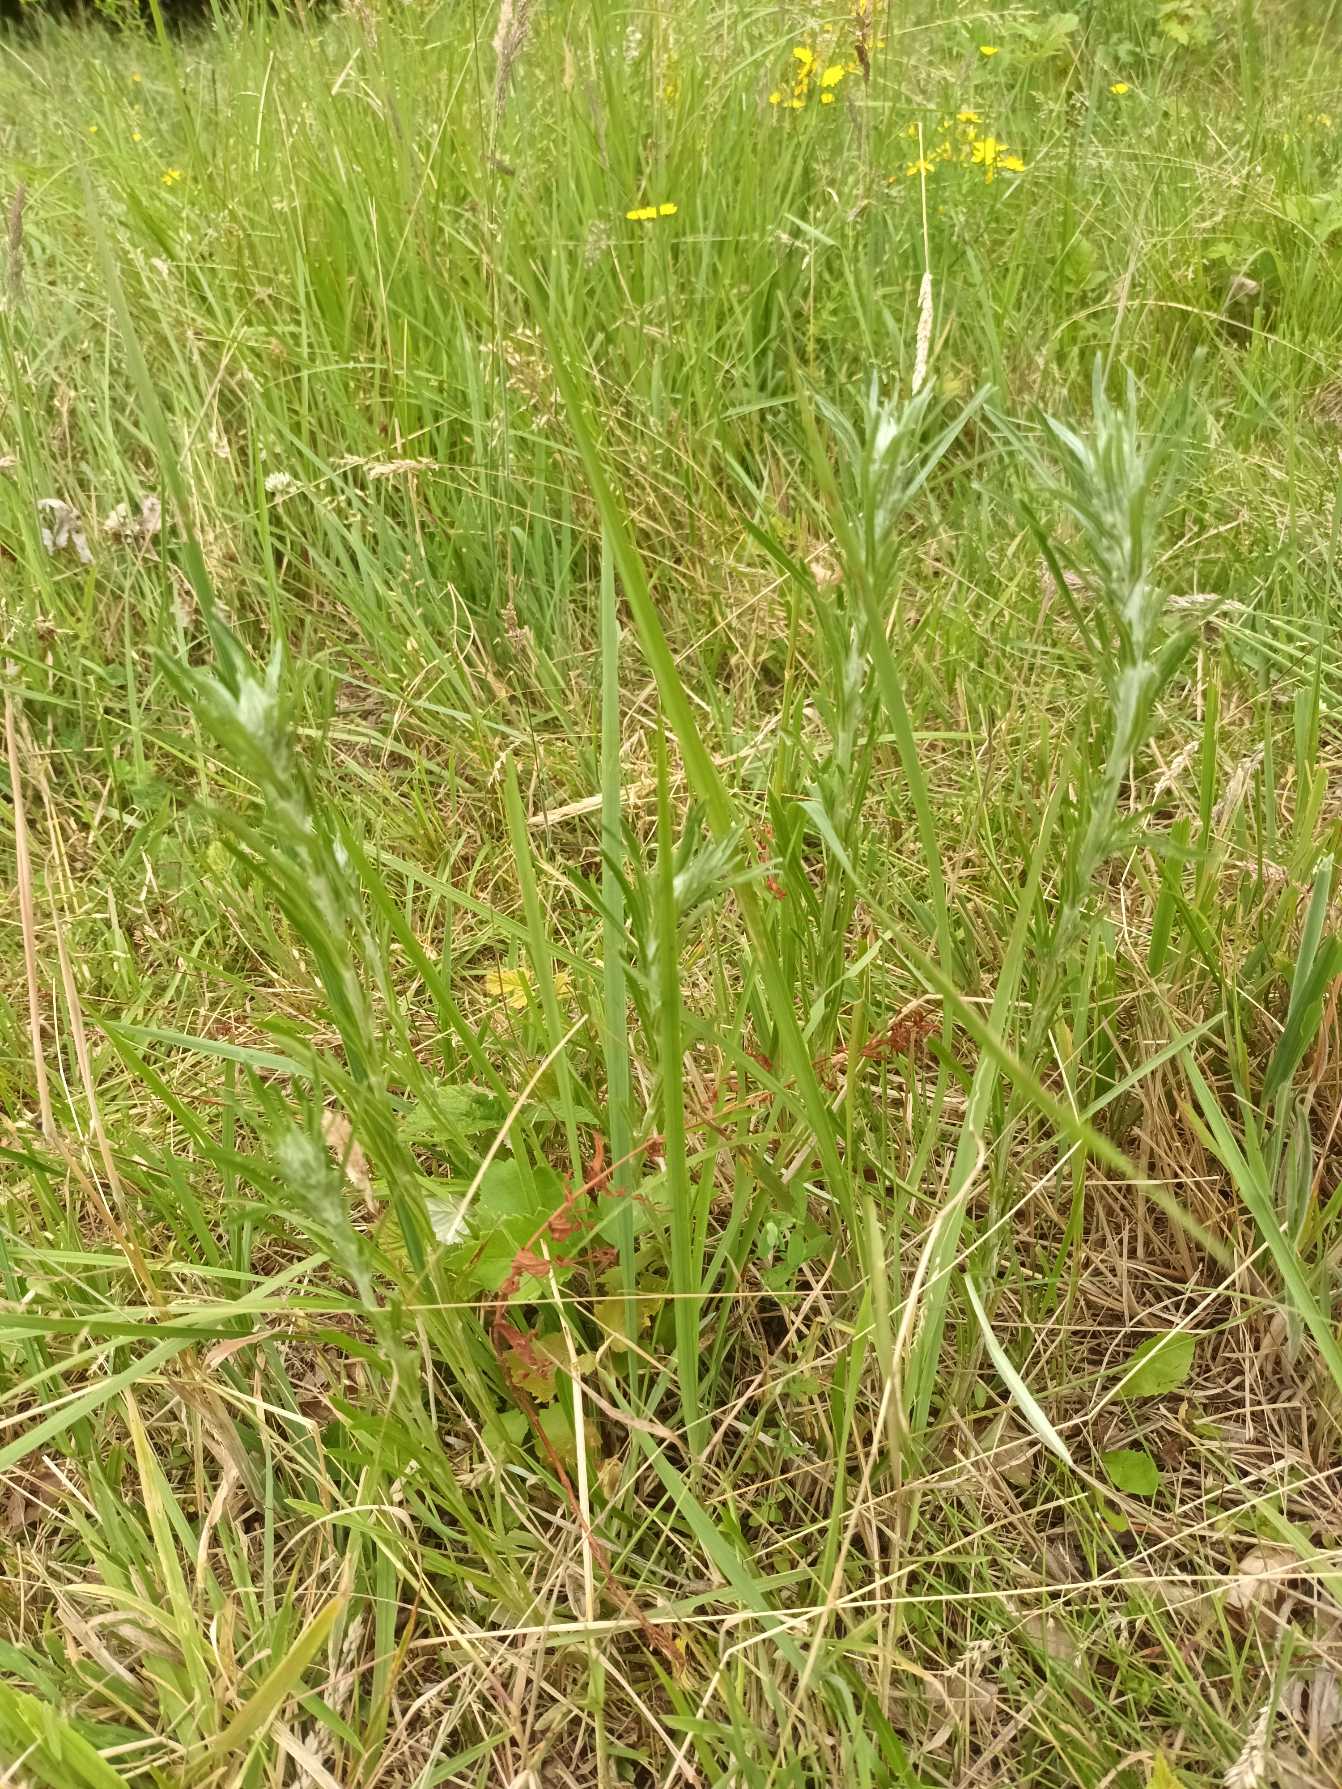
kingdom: Plantae
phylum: Tracheophyta
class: Magnoliopsida
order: Asterales
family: Asteraceae
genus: Omalotheca
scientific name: Omalotheca sylvatica
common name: Rank evighedsblomst
